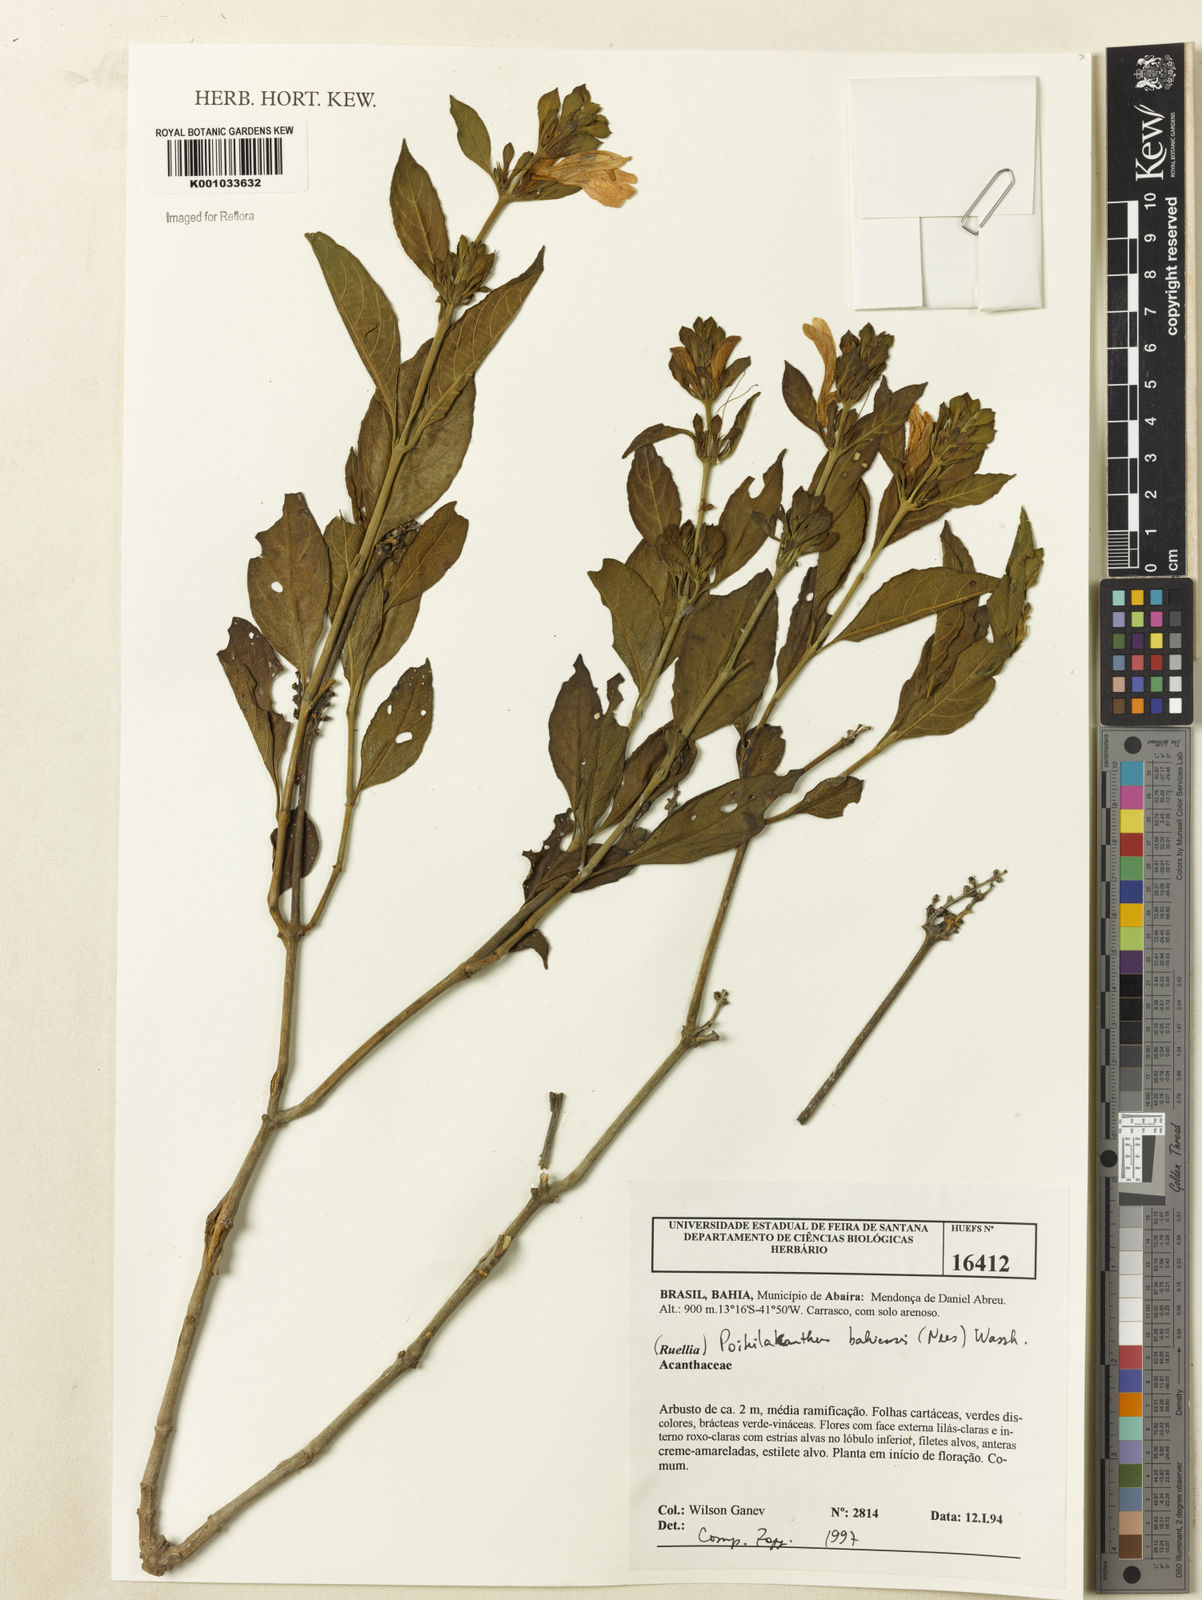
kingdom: Plantae
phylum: Tracheophyta
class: Magnoliopsida
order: Lamiales
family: Acanthaceae
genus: Poikilacanthus
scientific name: Poikilacanthus bahiensis
